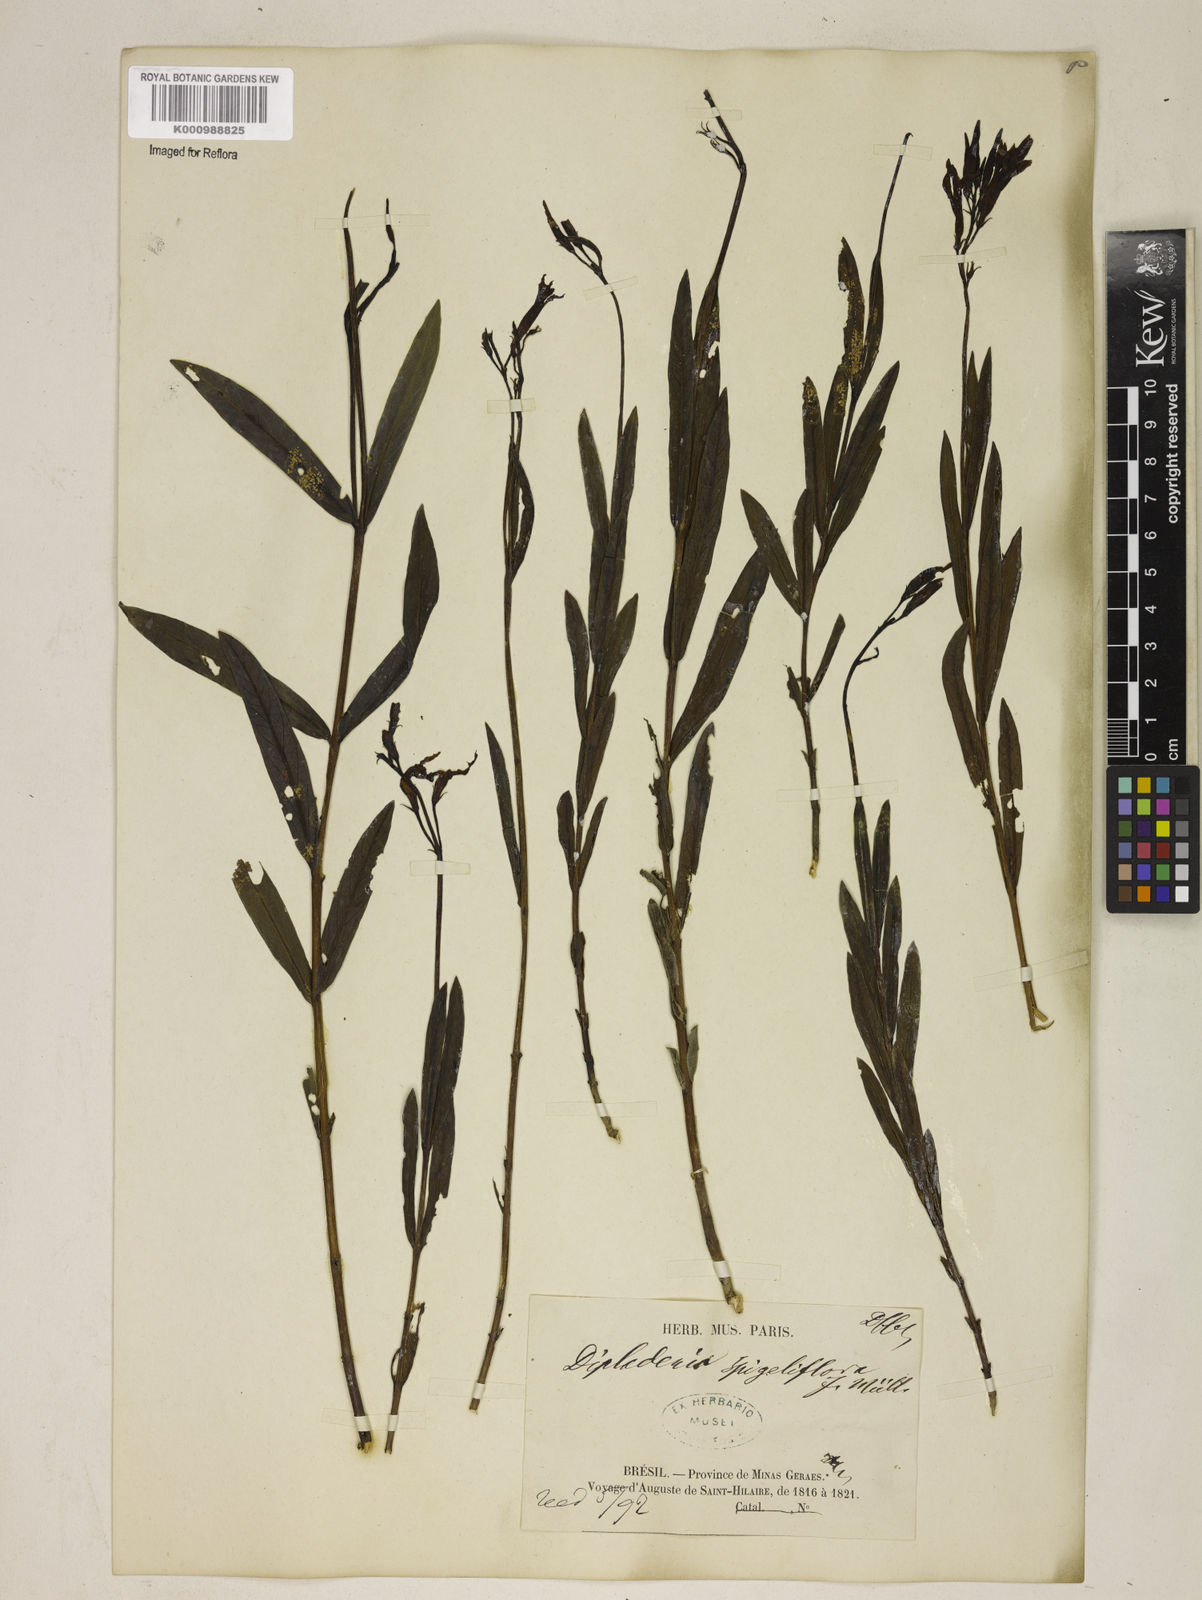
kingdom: Plantae
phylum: Tracheophyta
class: Magnoliopsida
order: Gentianales
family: Apocynaceae
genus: Mandevilla
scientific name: Mandevilla spigeliiflora
